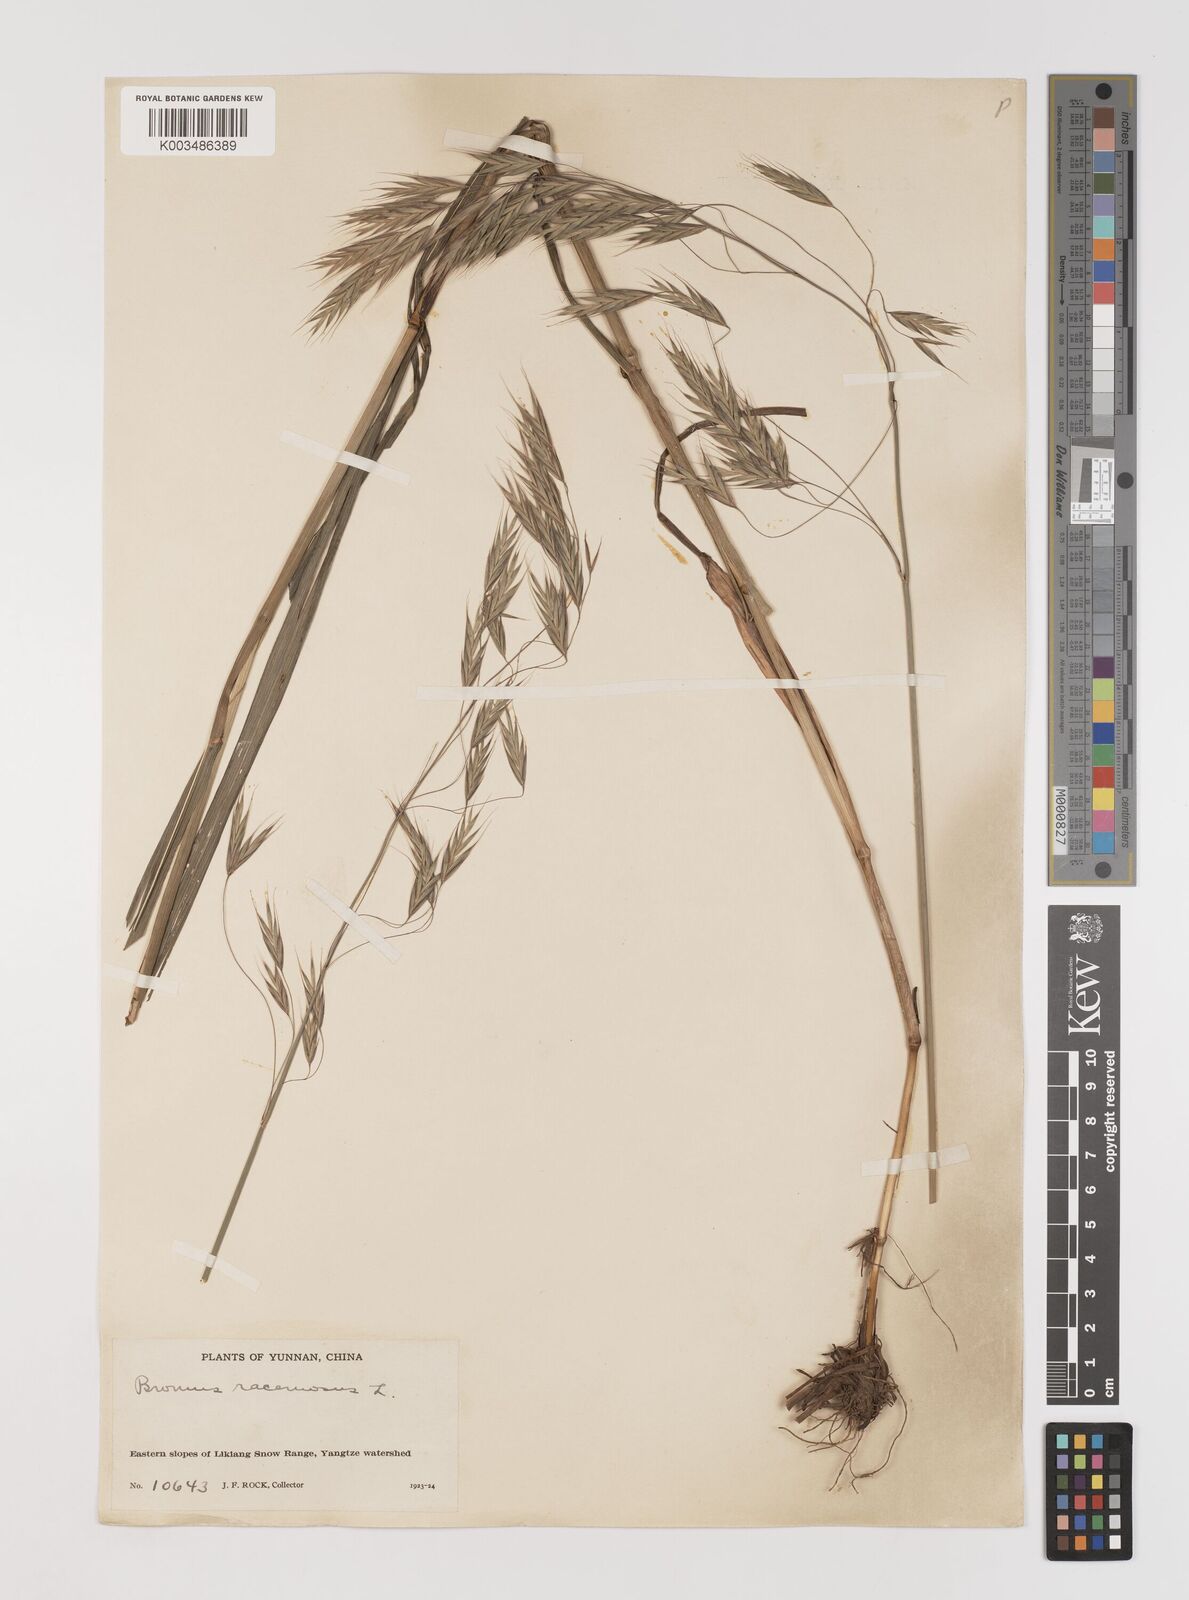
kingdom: Plantae
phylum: Tracheophyta
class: Liliopsida
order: Poales
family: Poaceae
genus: Bromus
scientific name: Bromus
